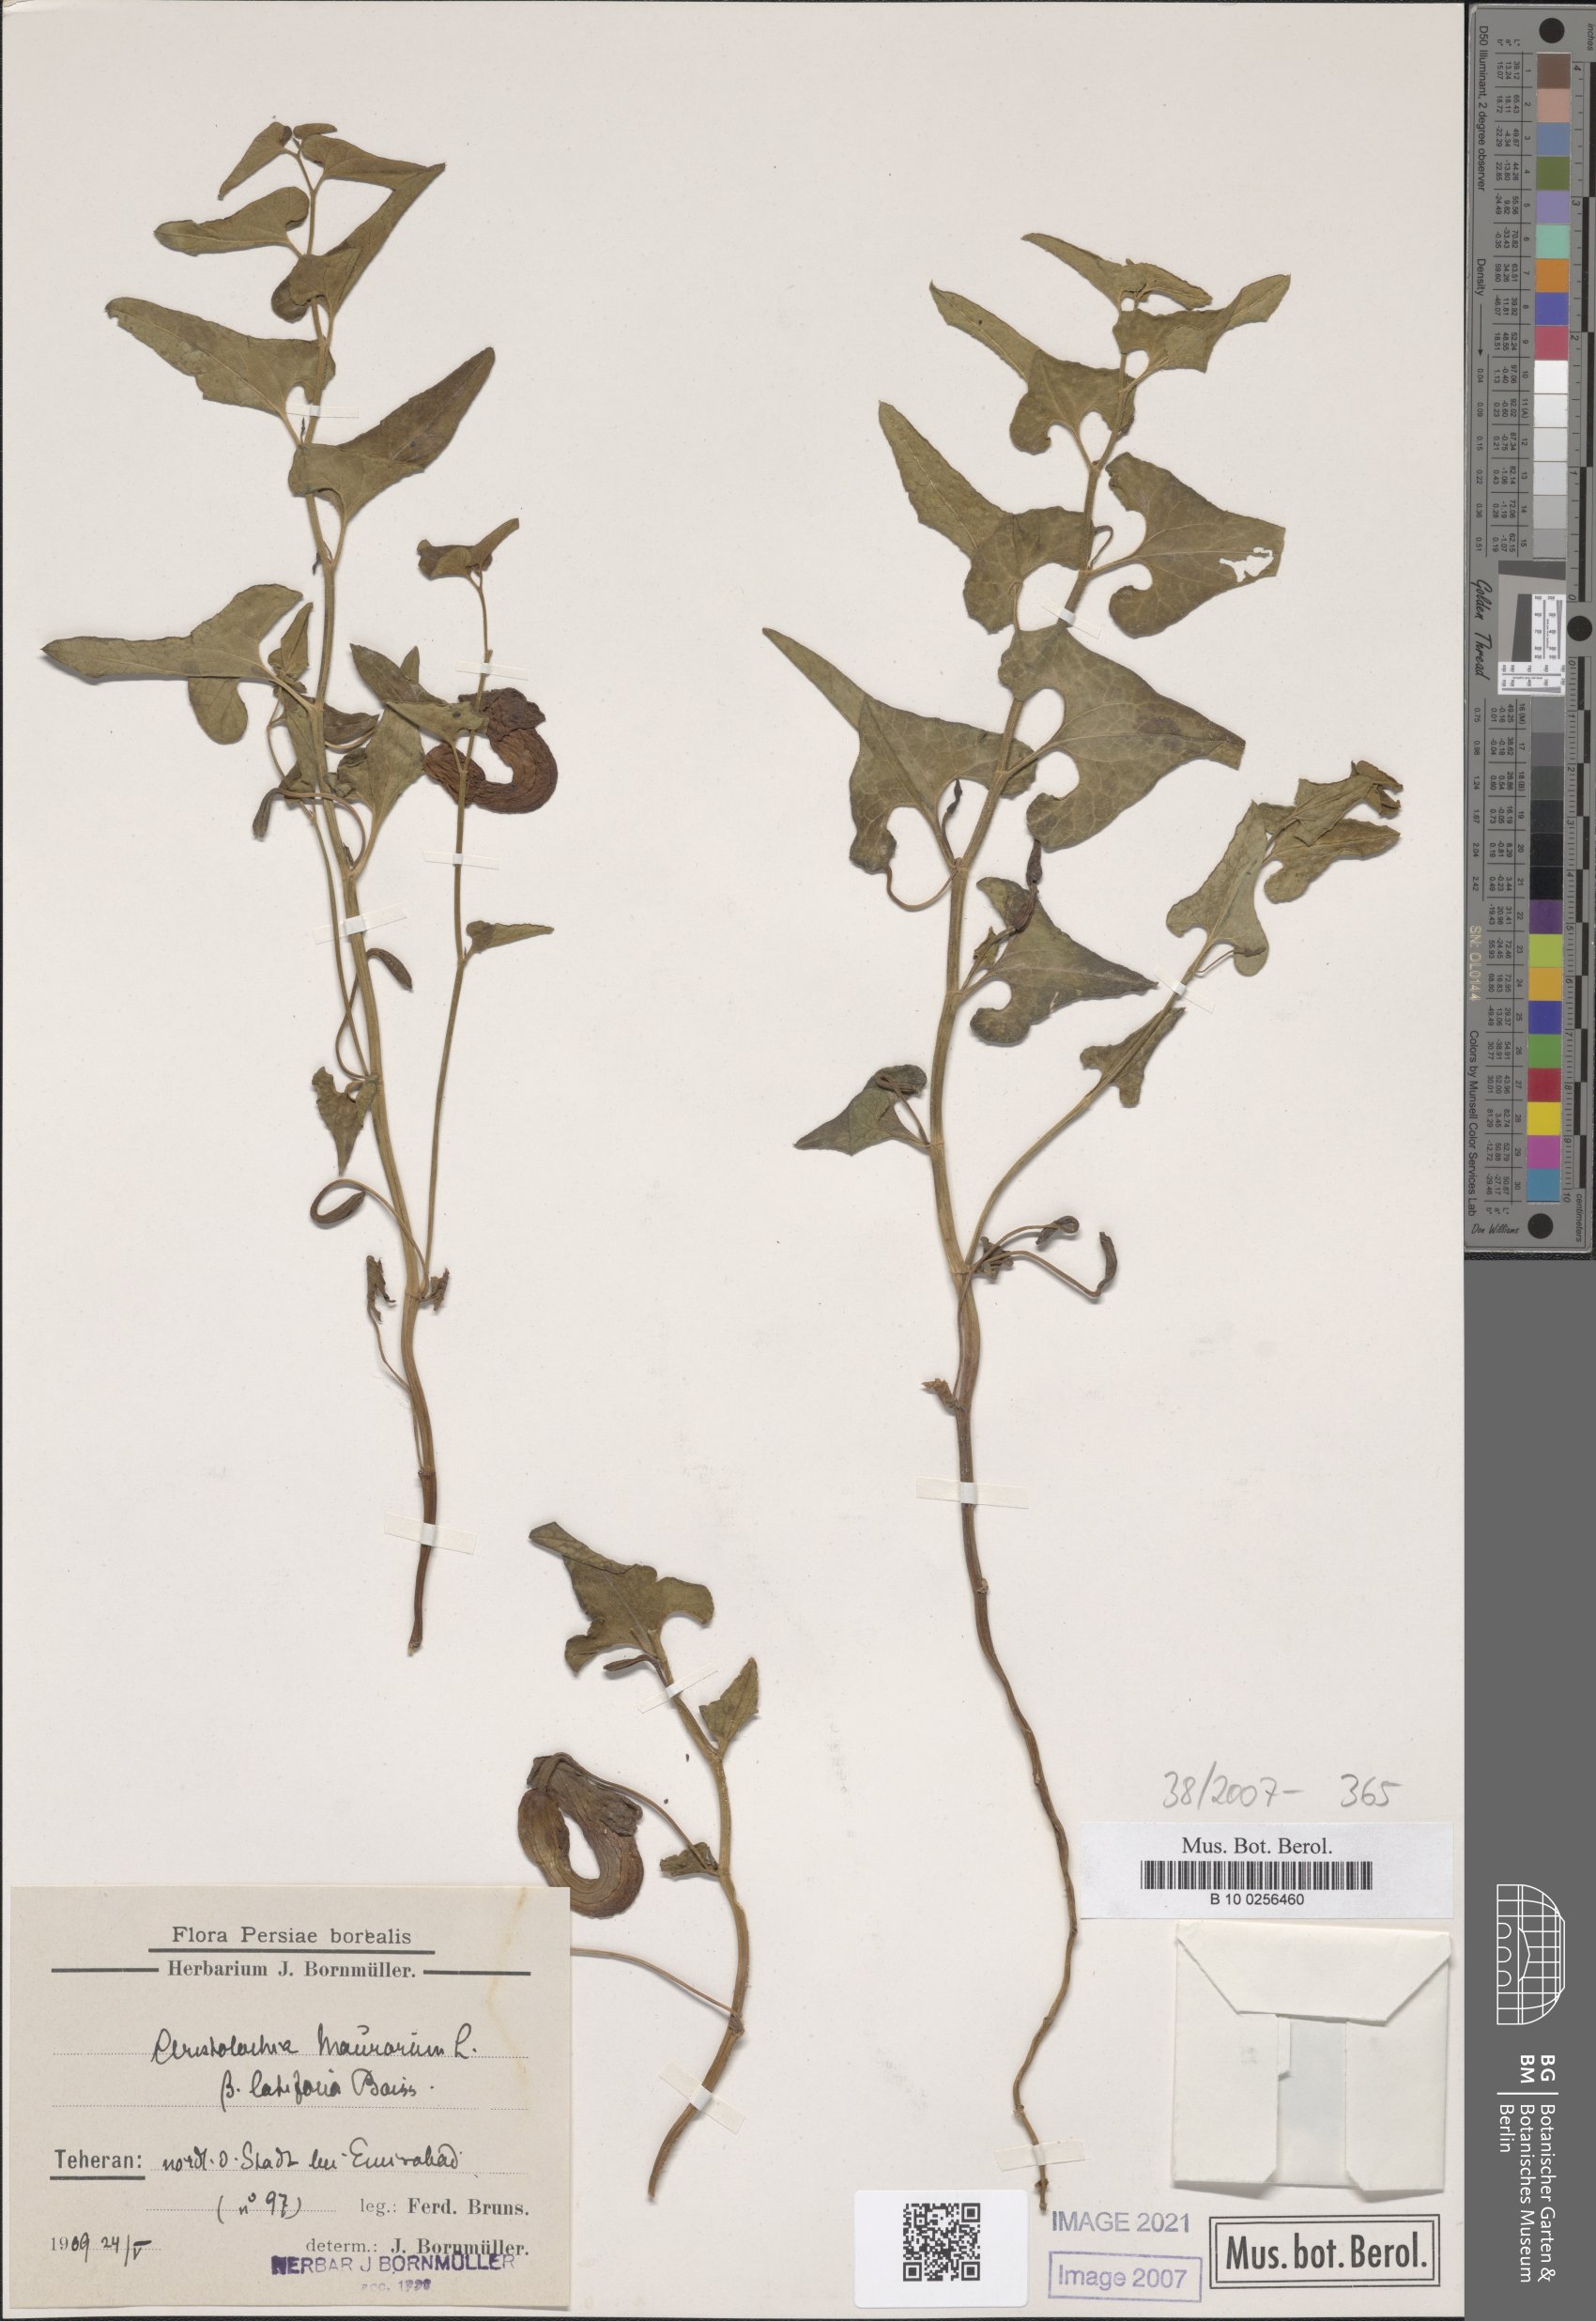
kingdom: Plantae
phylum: Tracheophyta
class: Magnoliopsida
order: Piperales
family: Aristolochiaceae
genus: Aristolochia
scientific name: Aristolochia cilicica
